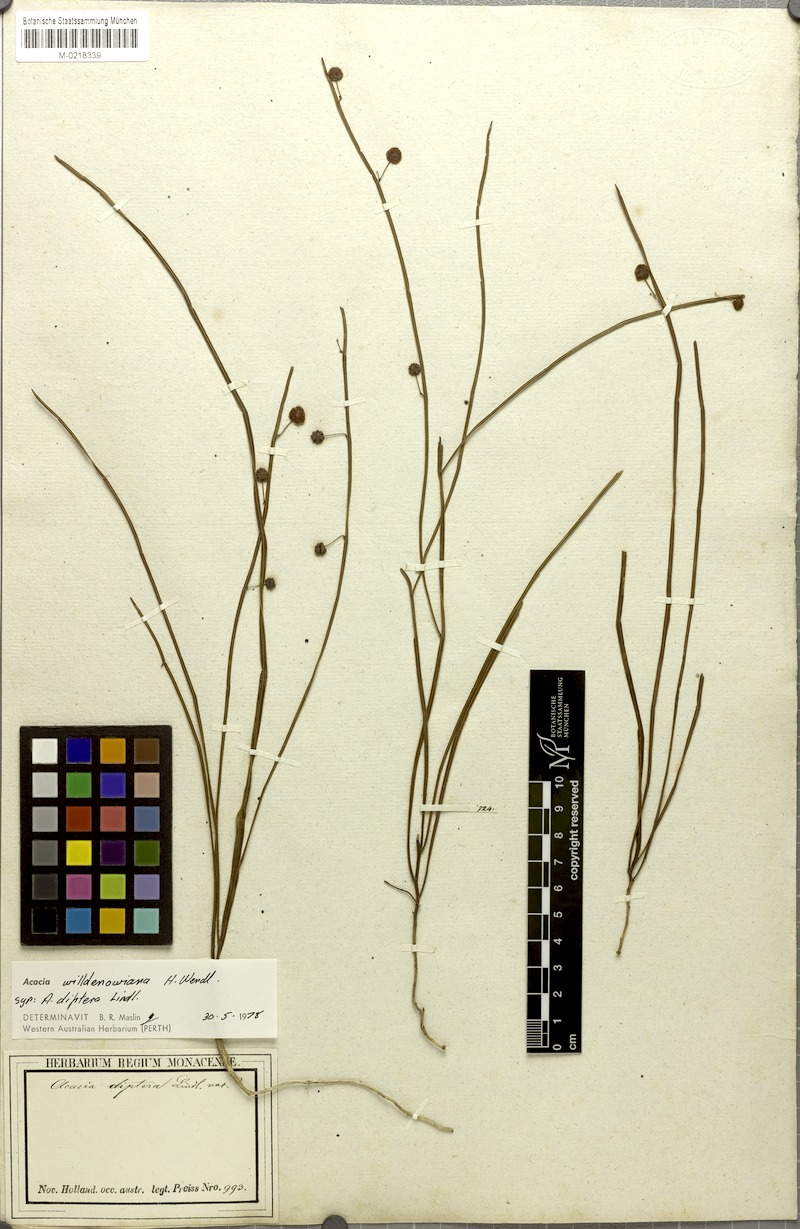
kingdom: Plantae
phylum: Tracheophyta
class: Magnoliopsida
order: Fabales
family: Fabaceae
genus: Acacia
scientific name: Acacia applanata
